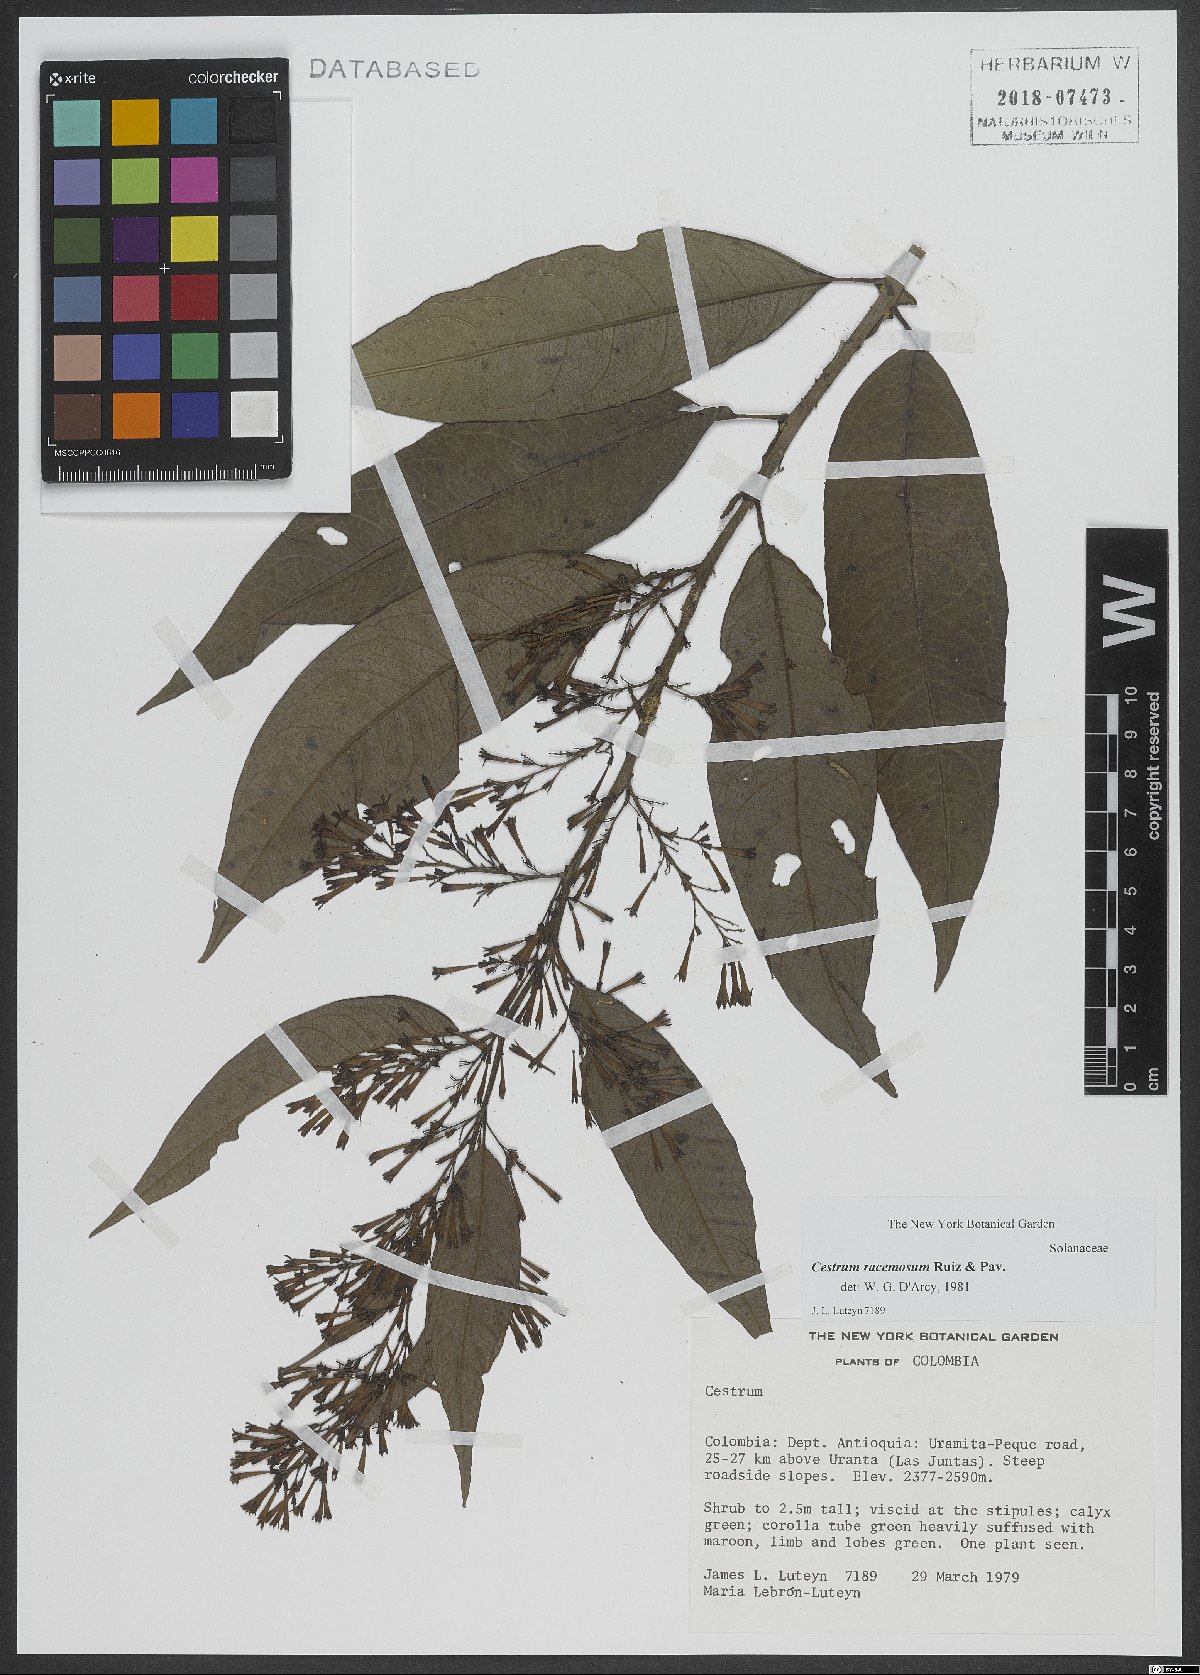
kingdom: Plantae
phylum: Tracheophyta
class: Magnoliopsida
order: Solanales
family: Solanaceae
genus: Cestrum
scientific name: Cestrum racemosum
